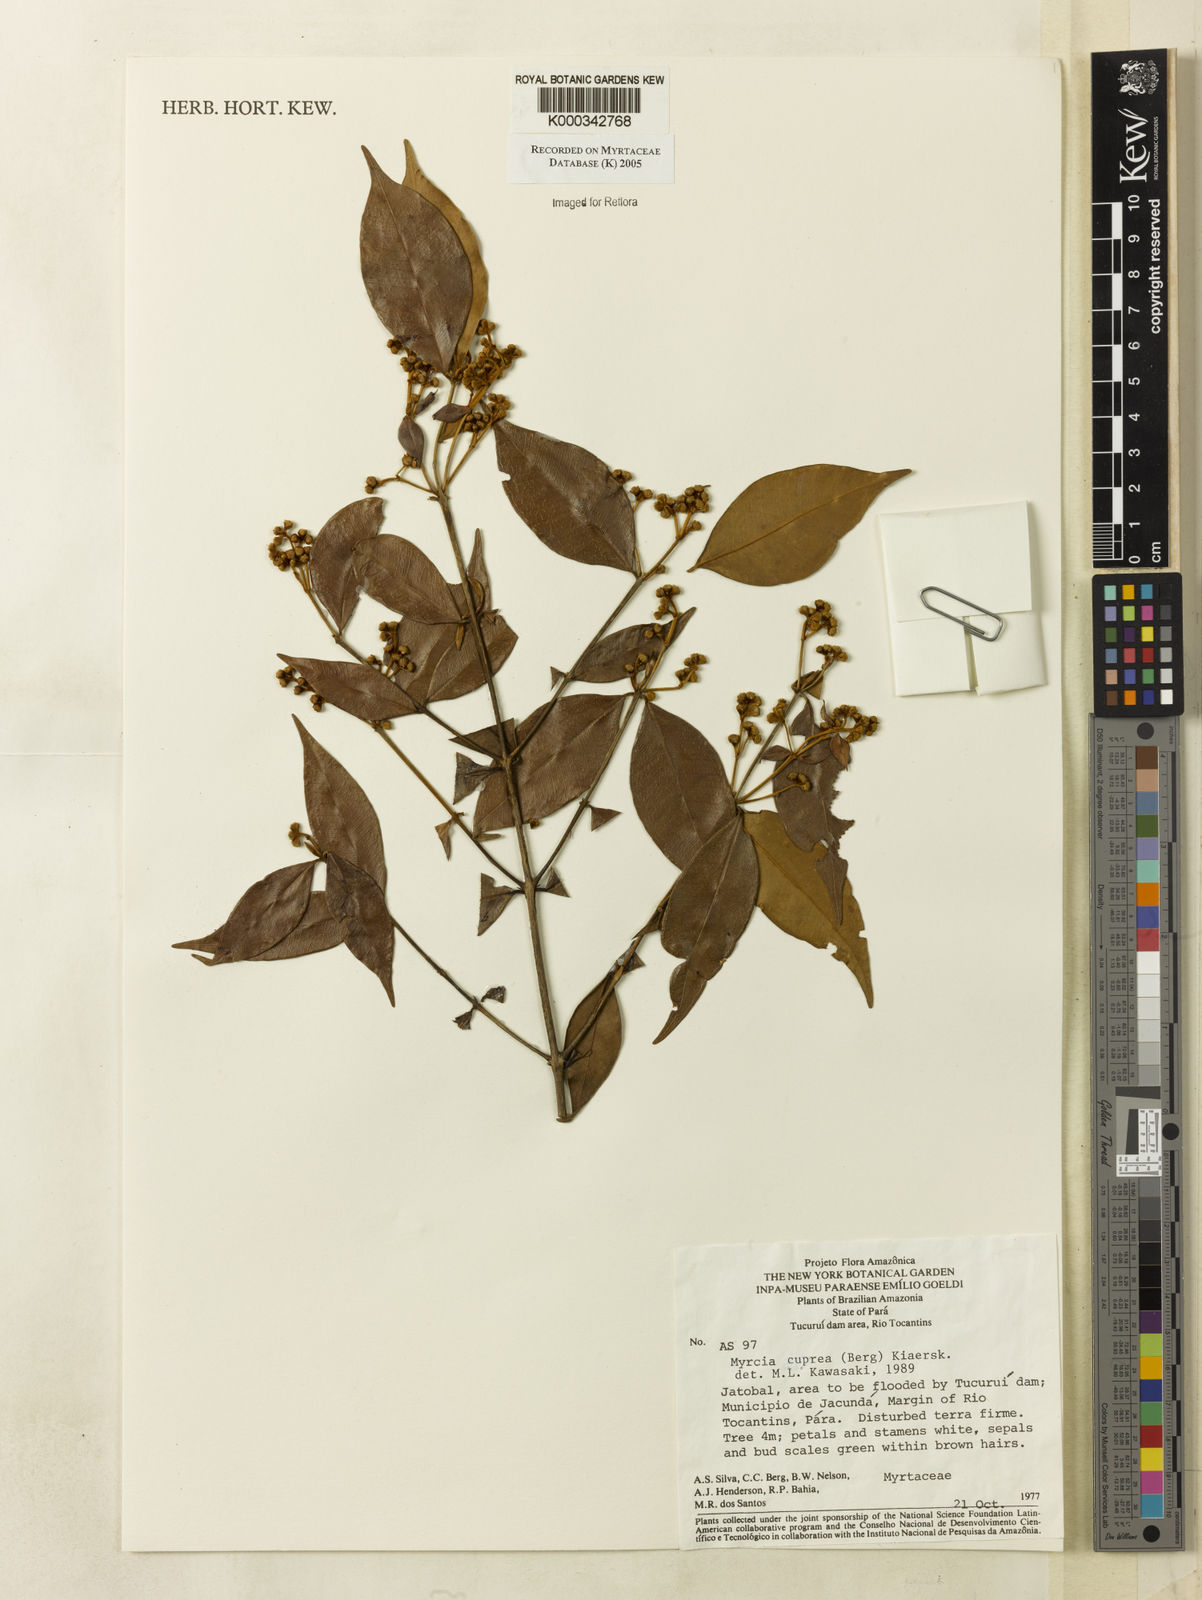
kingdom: Plantae
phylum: Tracheophyta
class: Magnoliopsida
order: Myrtales
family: Myrtaceae
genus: Myrcia
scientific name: Myrcia cuprea
